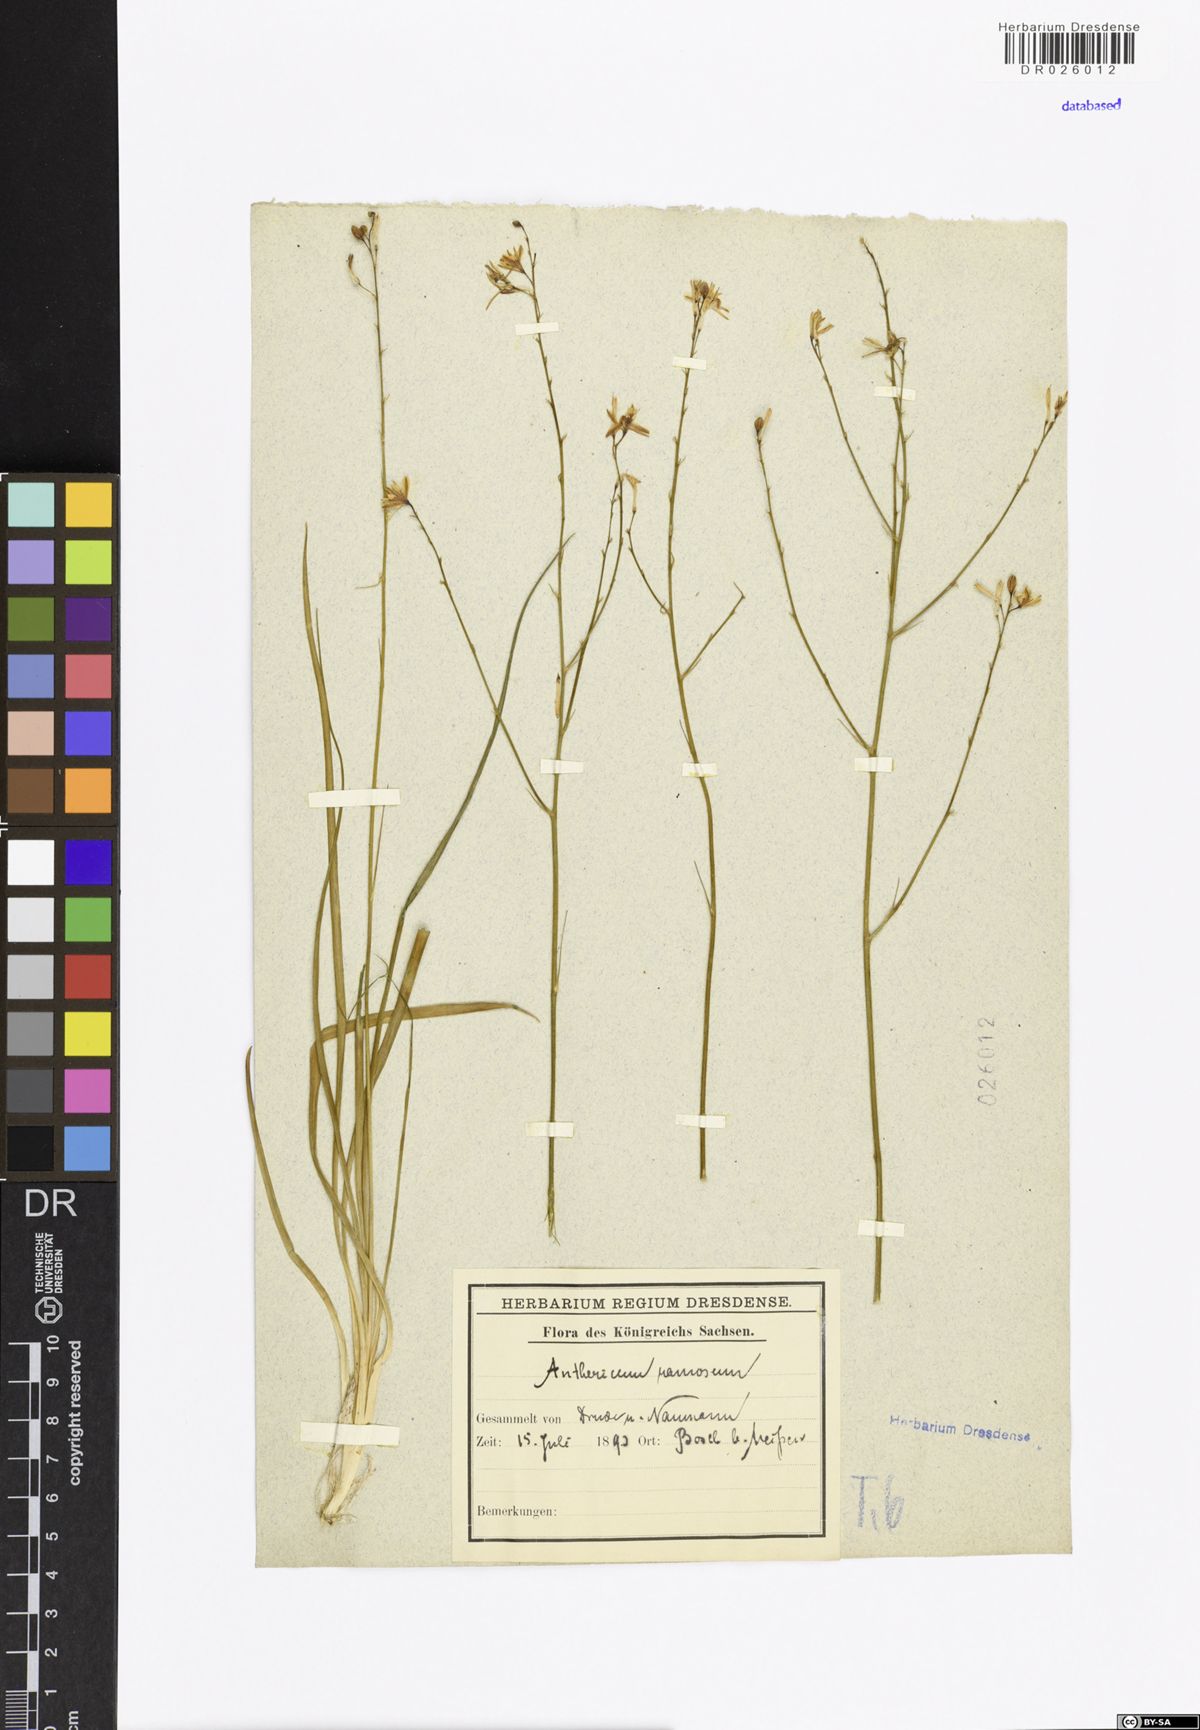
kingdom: Plantae
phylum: Tracheophyta
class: Liliopsida
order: Asparagales
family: Asparagaceae
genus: Anthericum
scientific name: Anthericum ramosum
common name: Branched st. bernard's-lily
